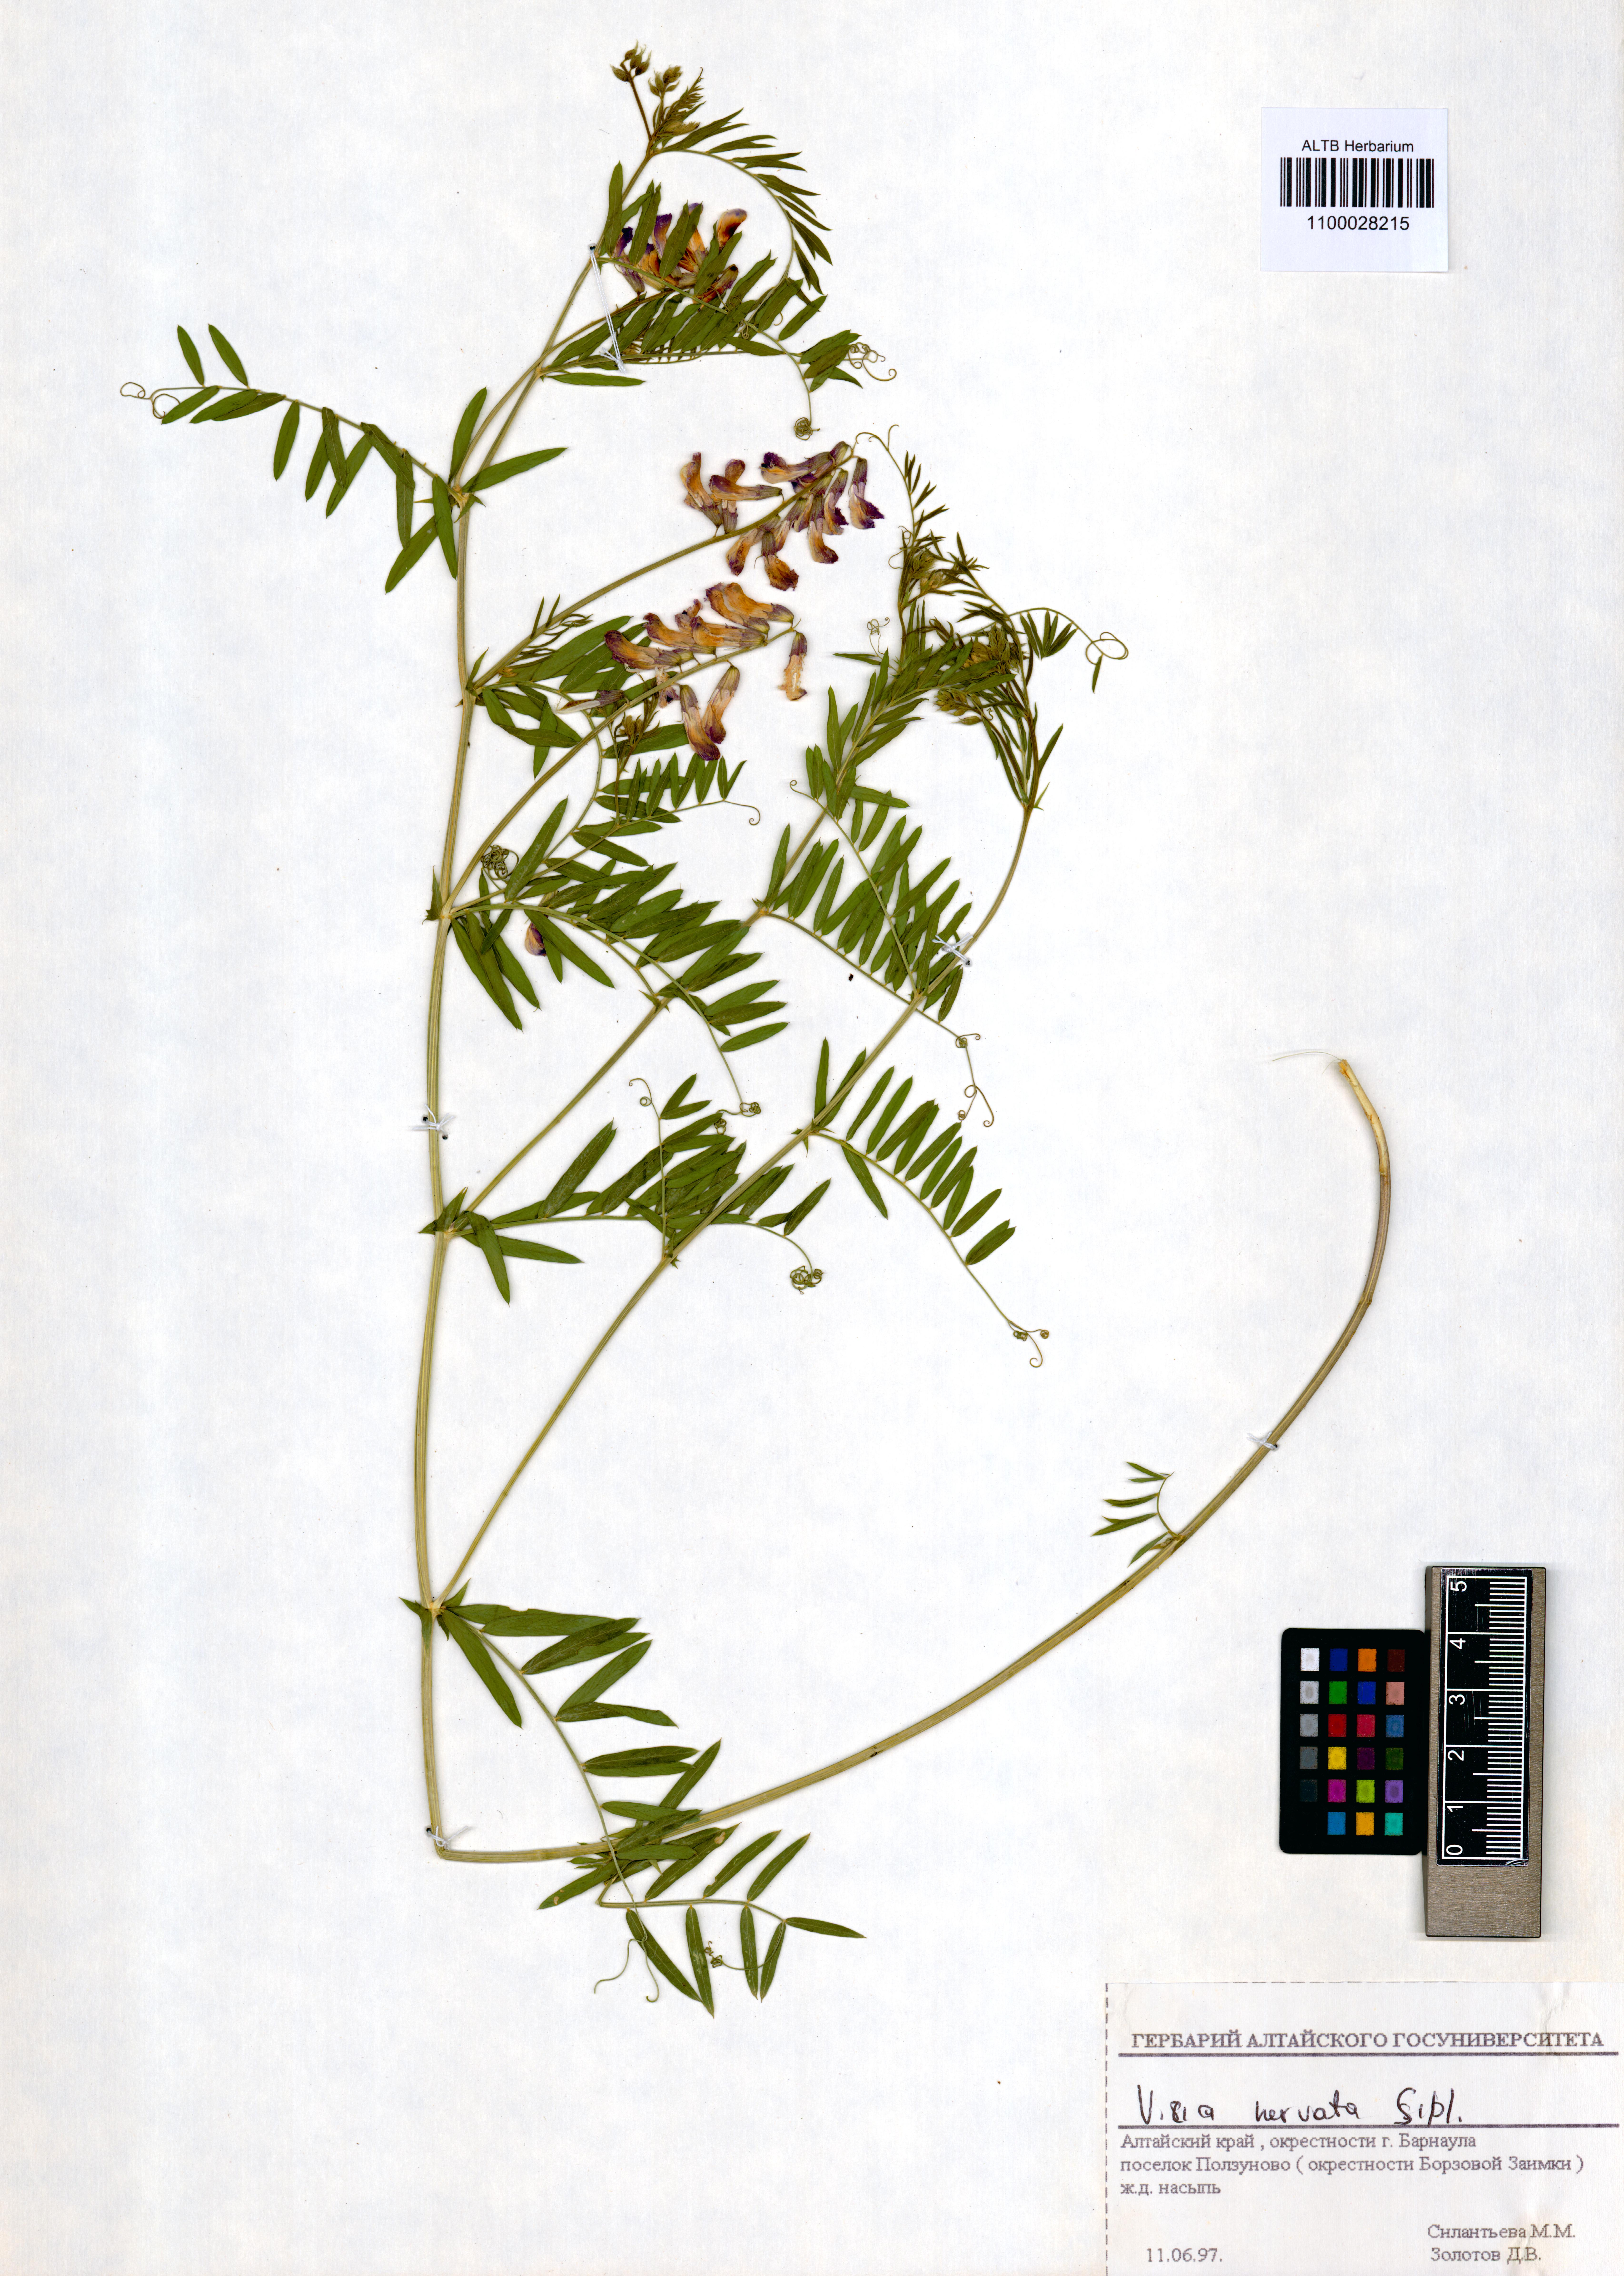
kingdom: Plantae
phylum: Tracheophyta
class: Magnoliopsida
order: Fabales
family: Fabaceae
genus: Vicia
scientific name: Vicia multicaulis
